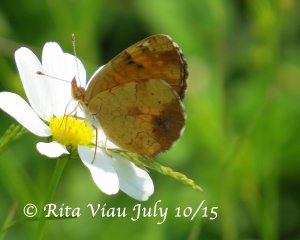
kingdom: Animalia
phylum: Arthropoda
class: Insecta
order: Lepidoptera
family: Nymphalidae
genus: Phyciodes
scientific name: Phyciodes tharos
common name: Northern Crescent
